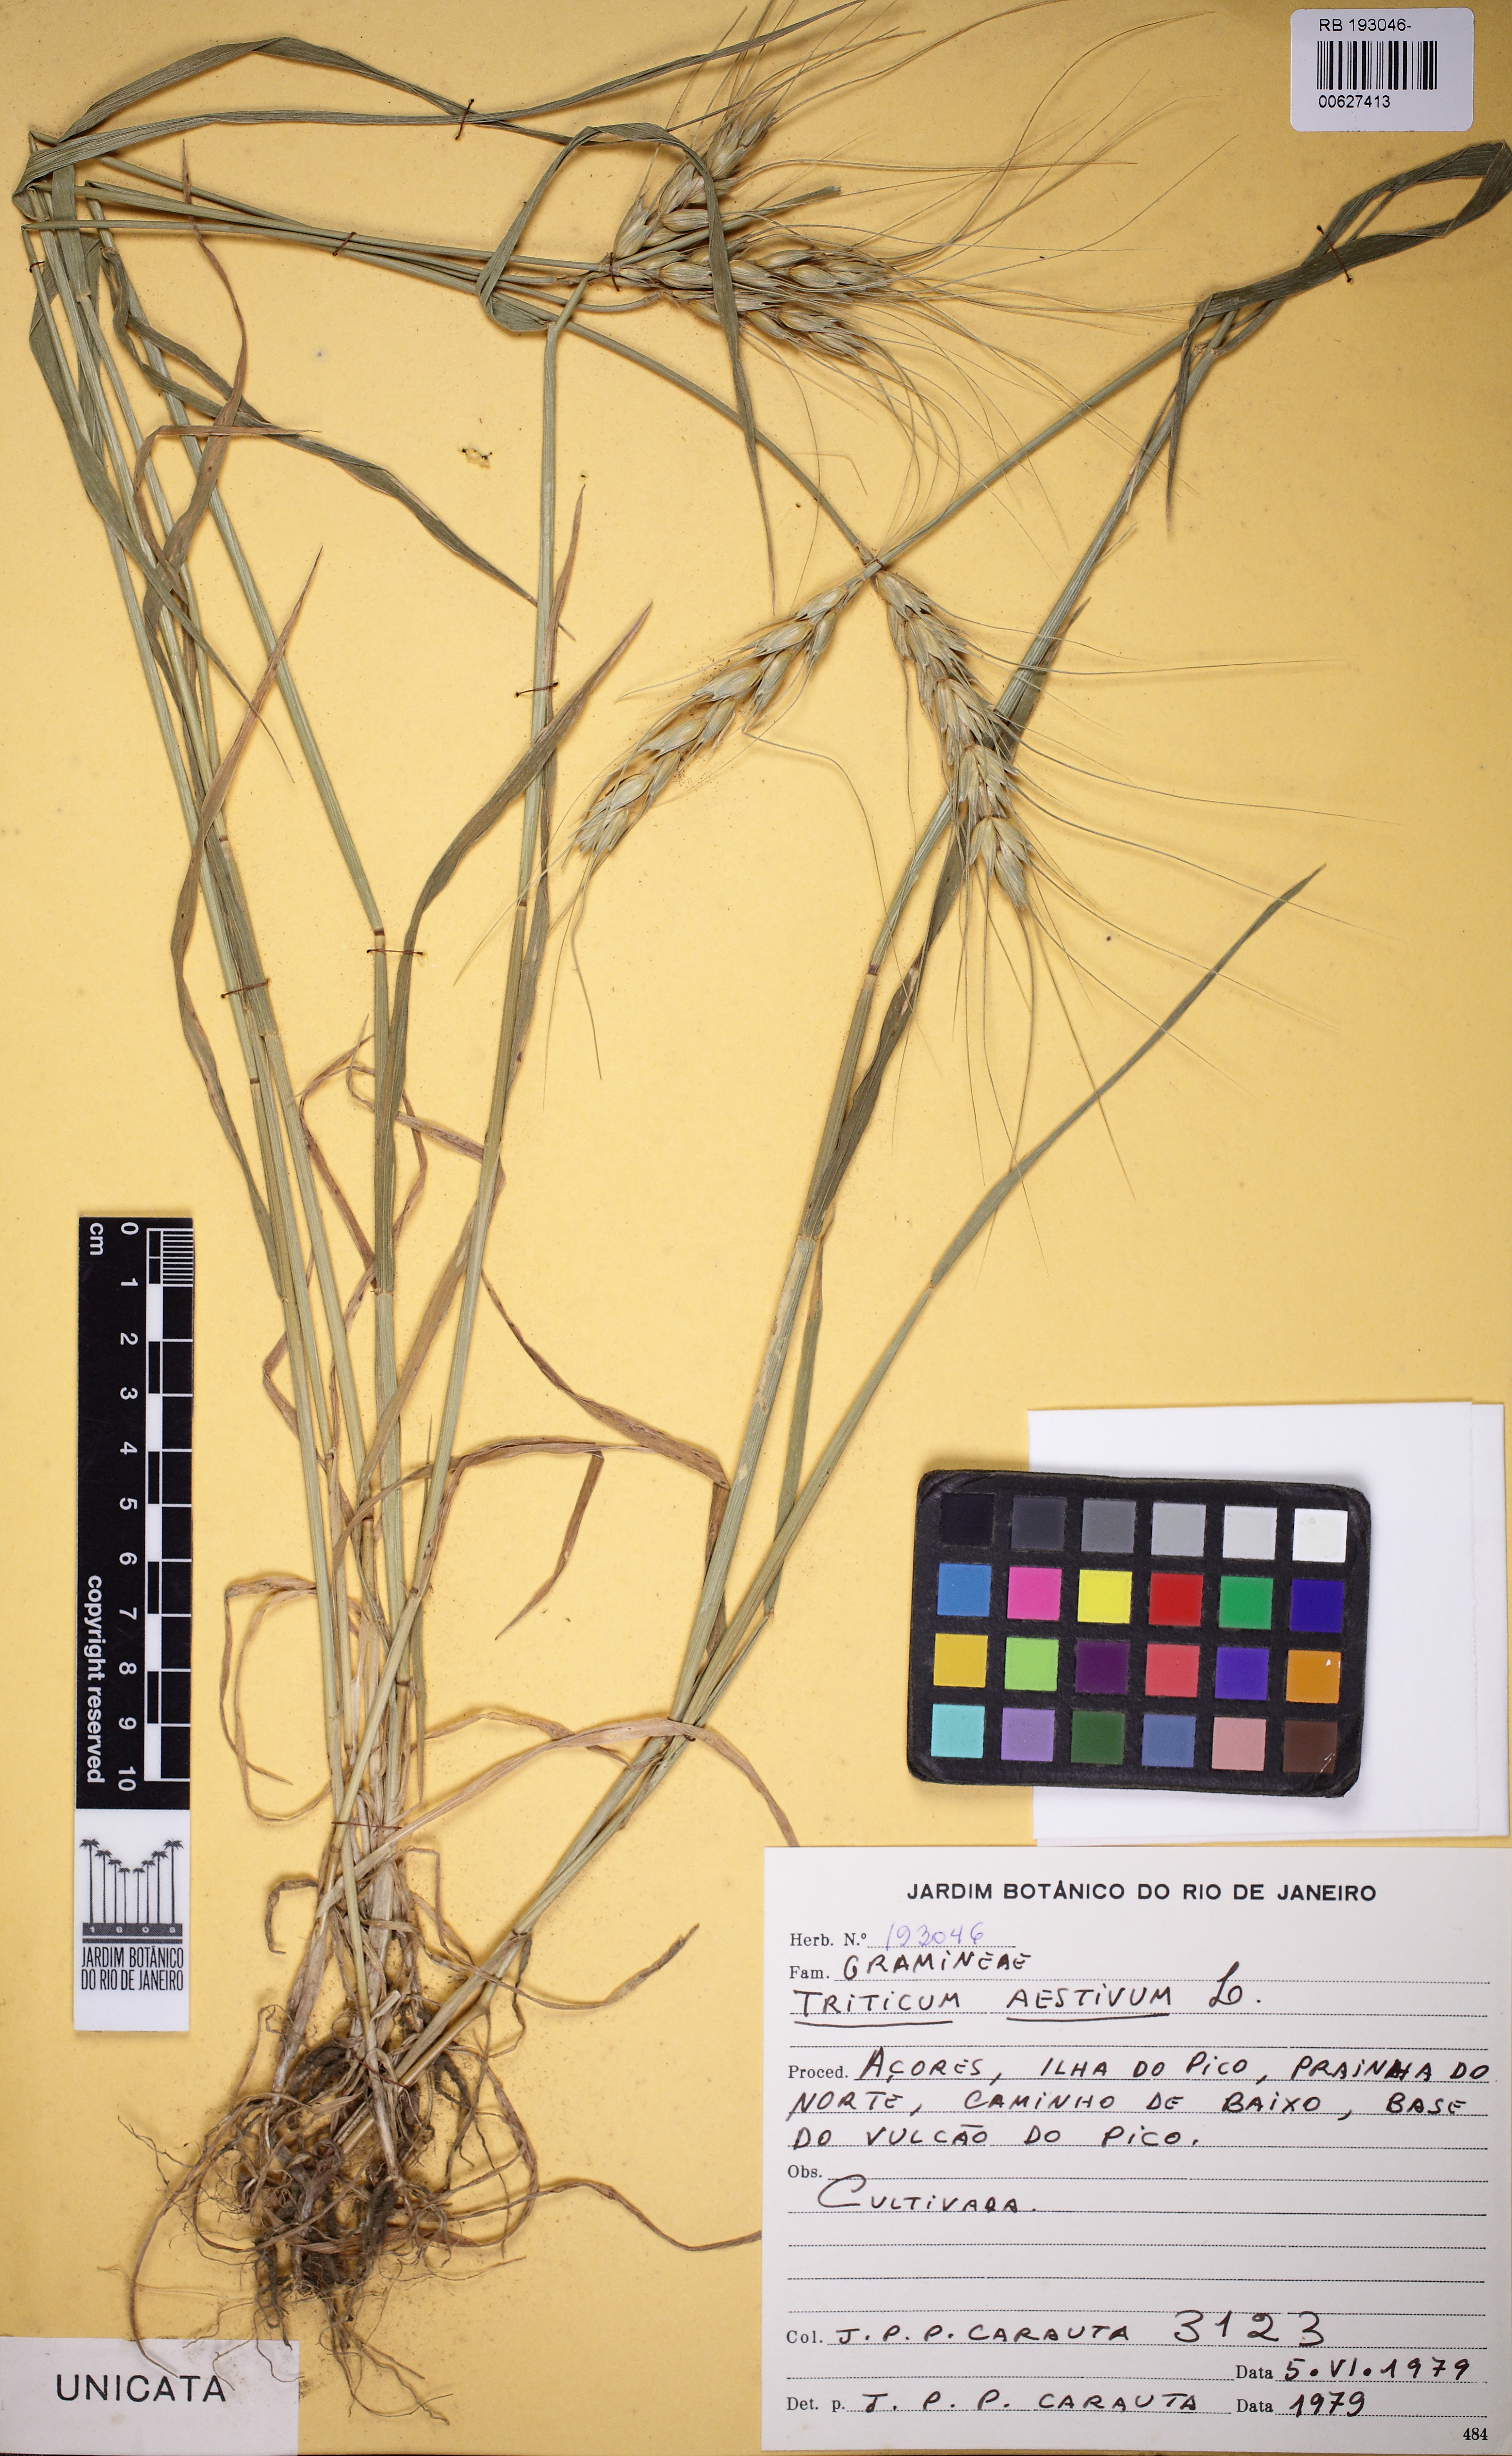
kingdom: Plantae
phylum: Tracheophyta
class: Liliopsida
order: Poales
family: Poaceae
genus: Triticum
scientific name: Triticum aestivum
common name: Common wheat
